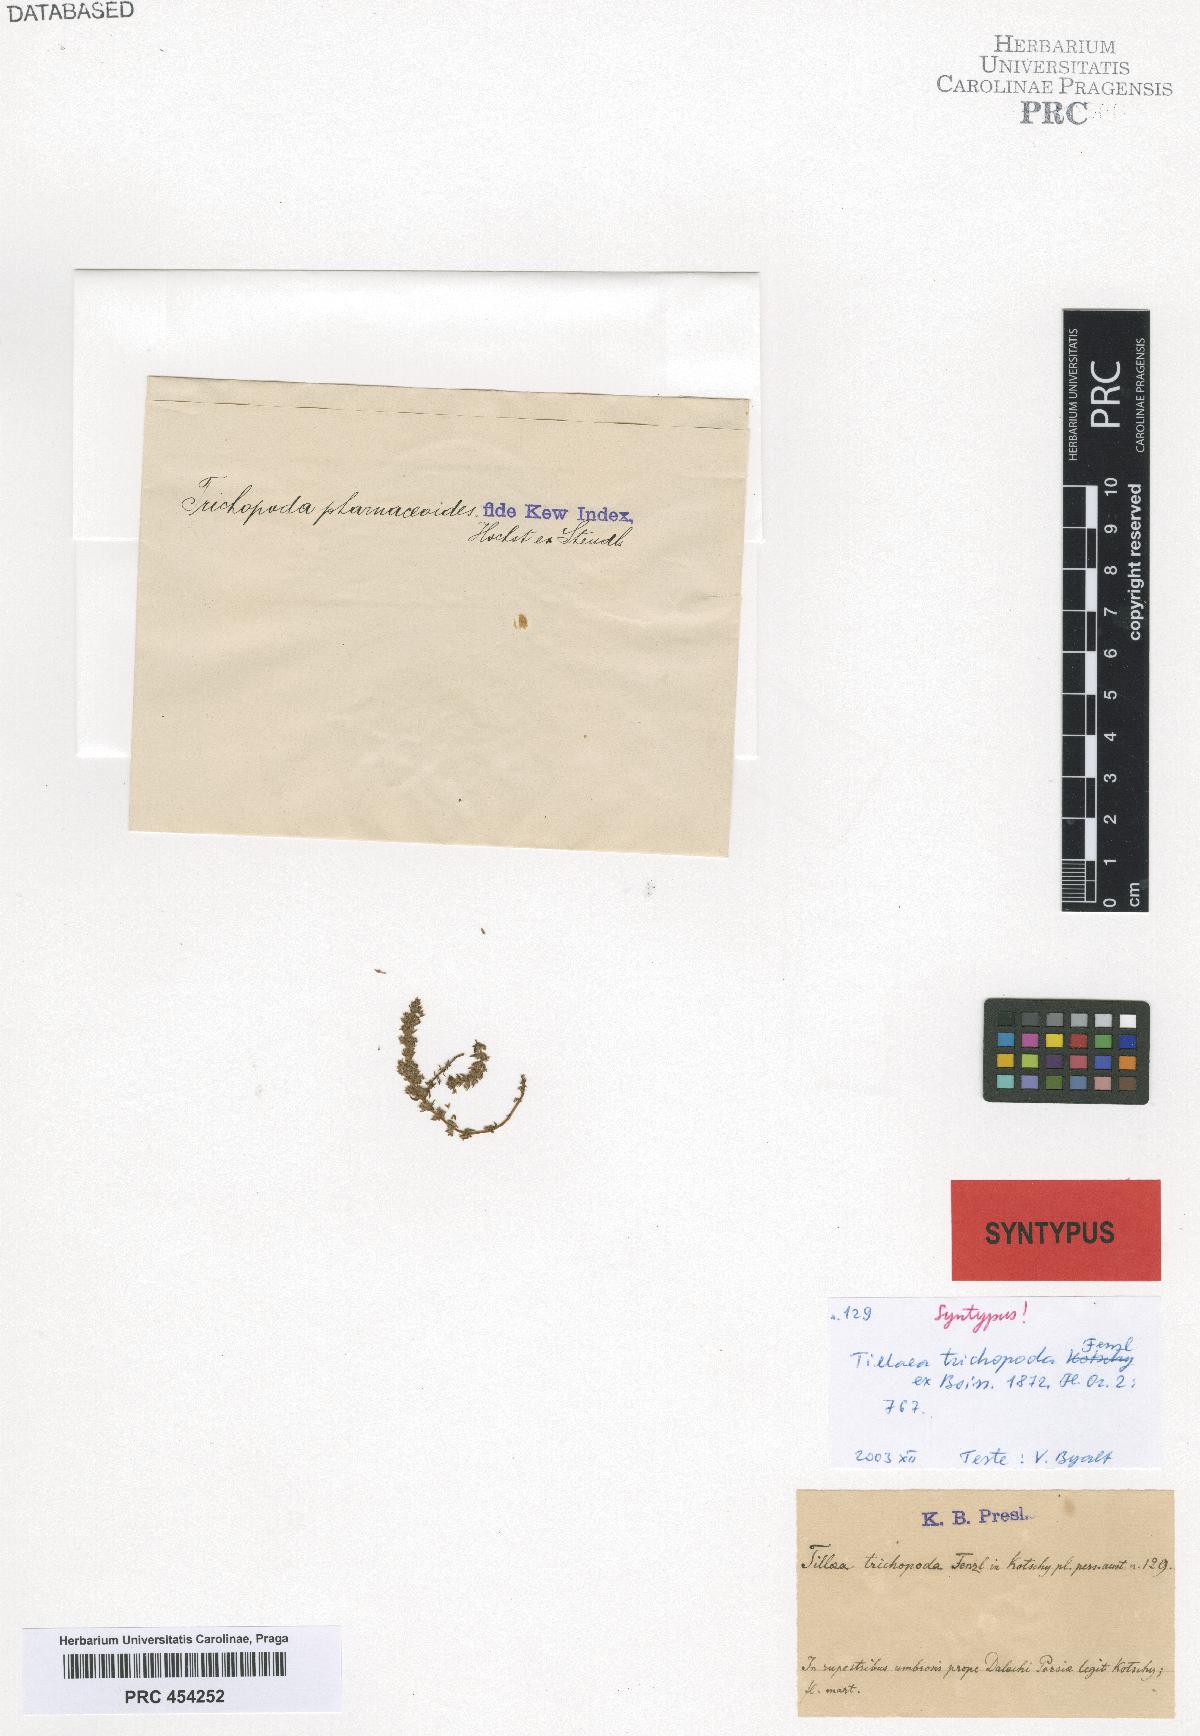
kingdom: Plantae
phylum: Tracheophyta
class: Magnoliopsida
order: Saxifragales
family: Crassulaceae
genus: Crassula
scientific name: Crassula alata
